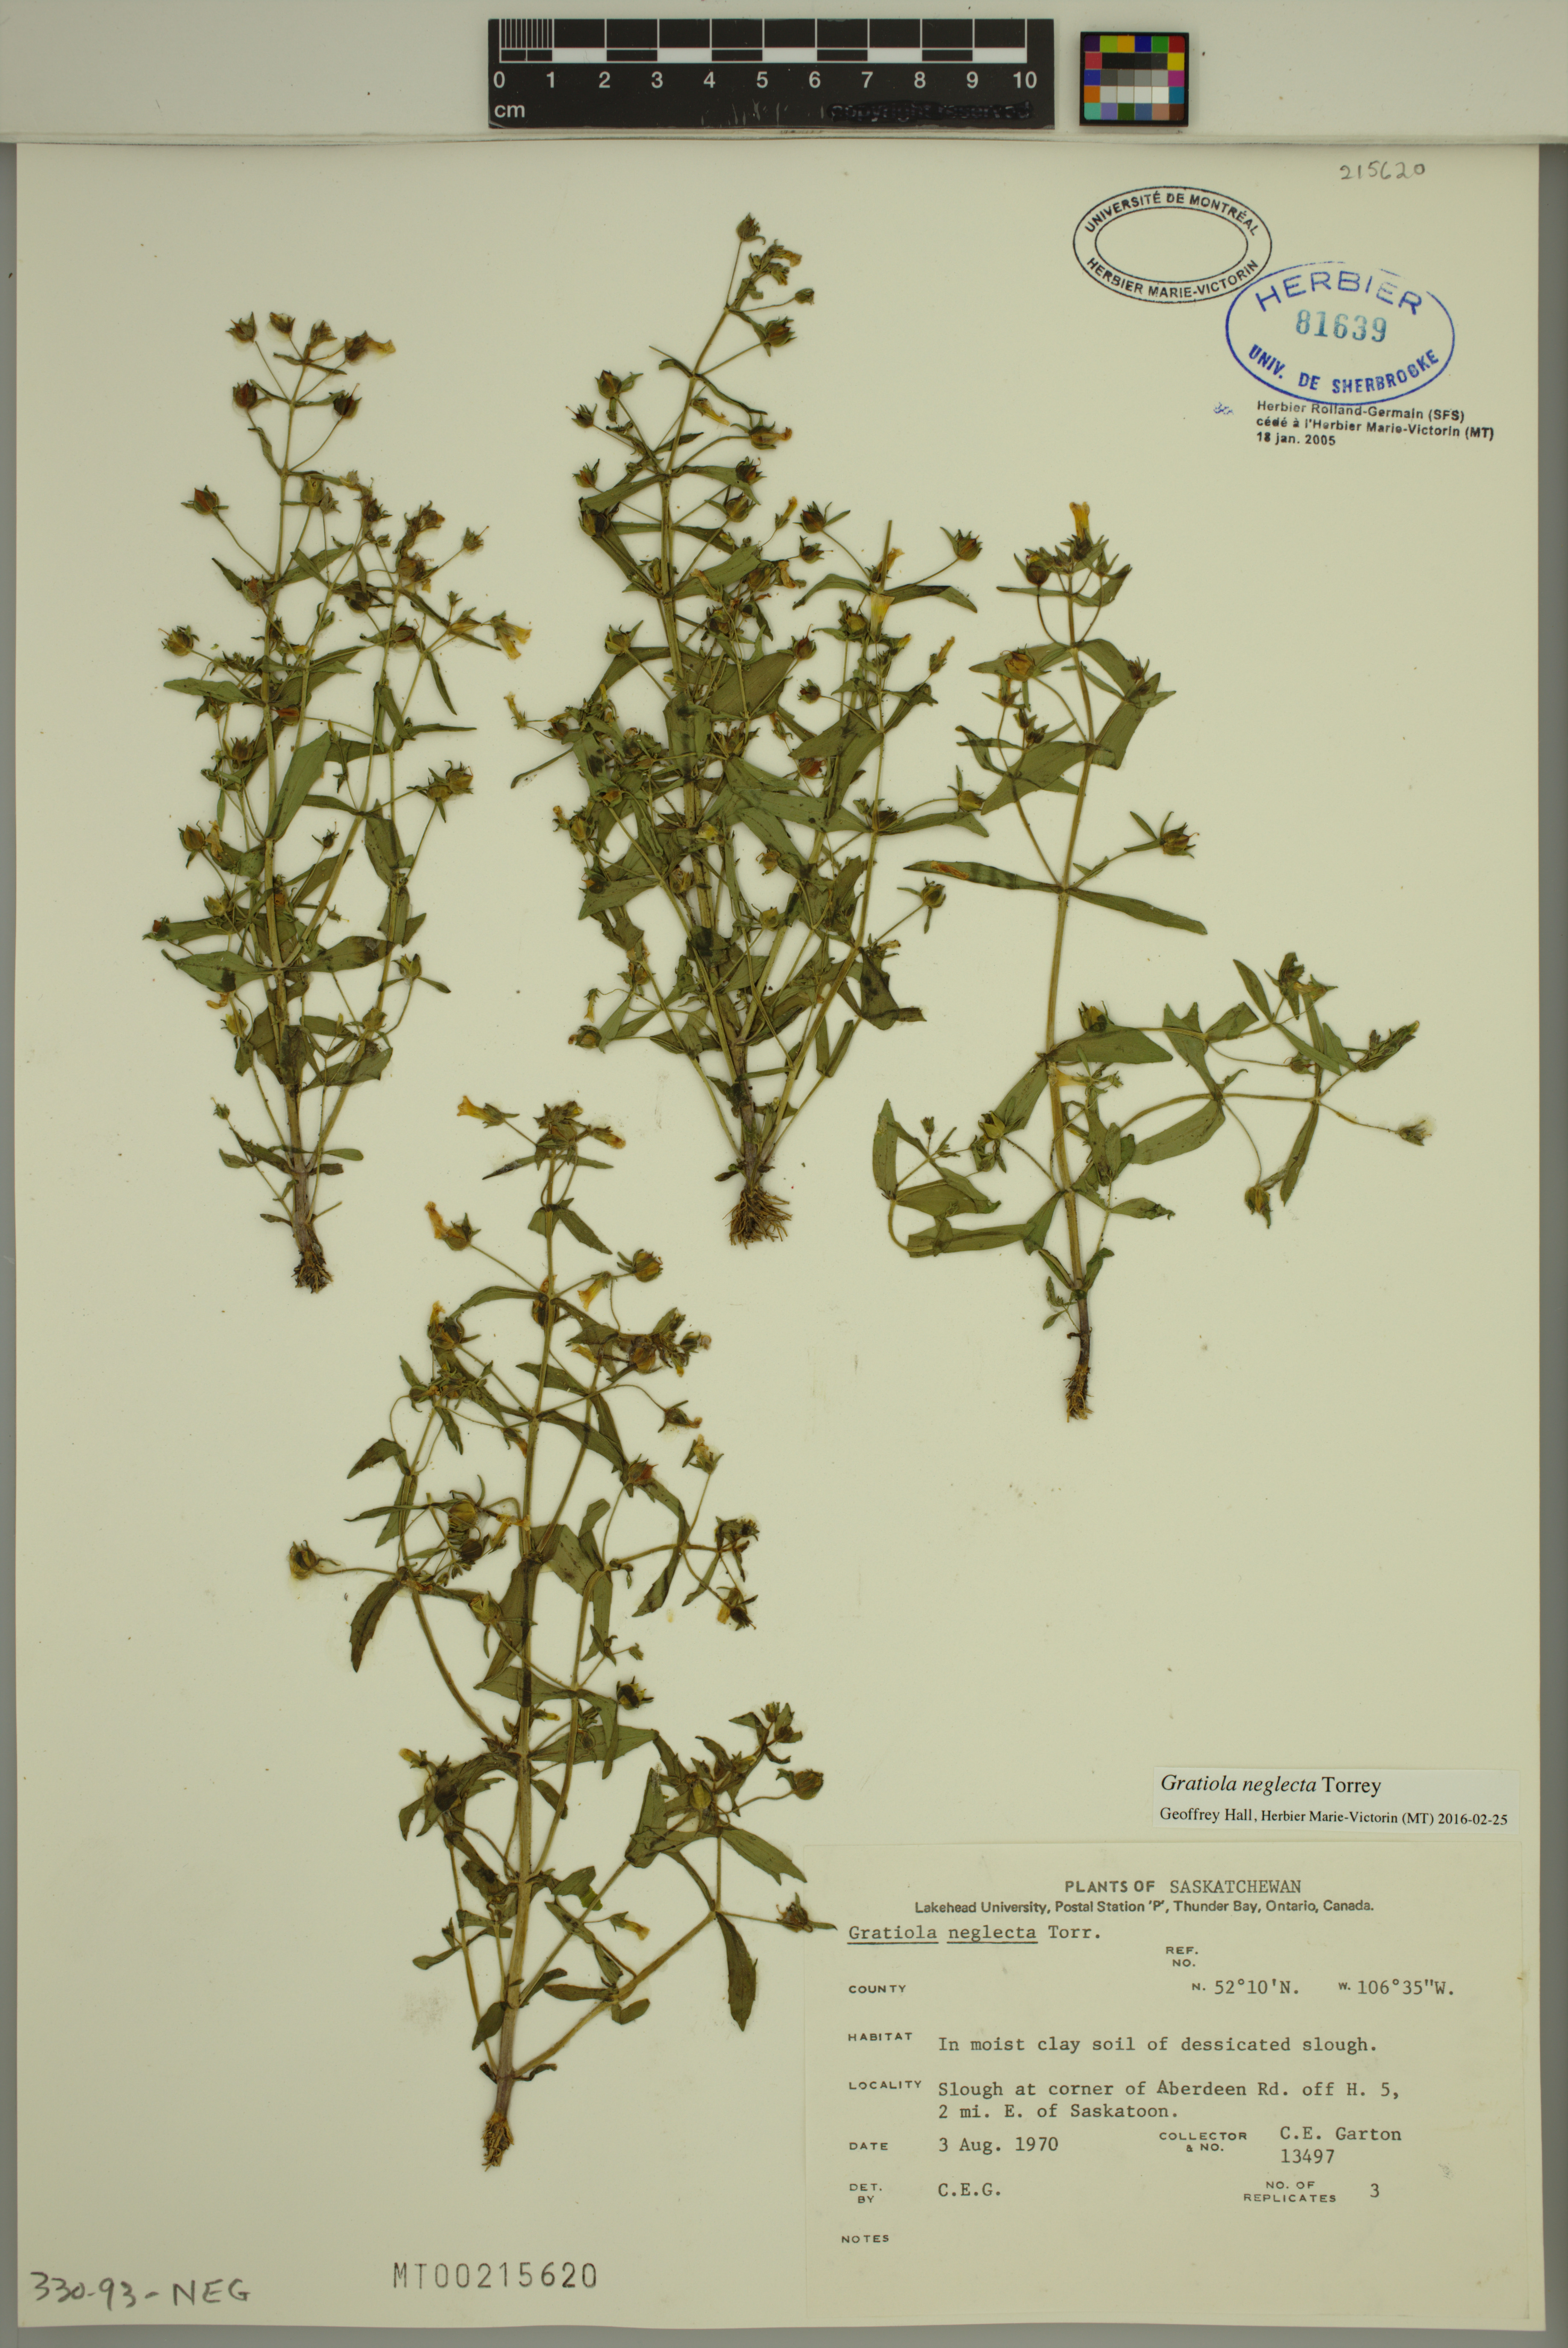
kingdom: Plantae
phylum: Tracheophyta
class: Magnoliopsida
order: Lamiales
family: Plantaginaceae
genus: Gratiola
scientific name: Gratiola neglecta
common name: American hedge-hyssop
